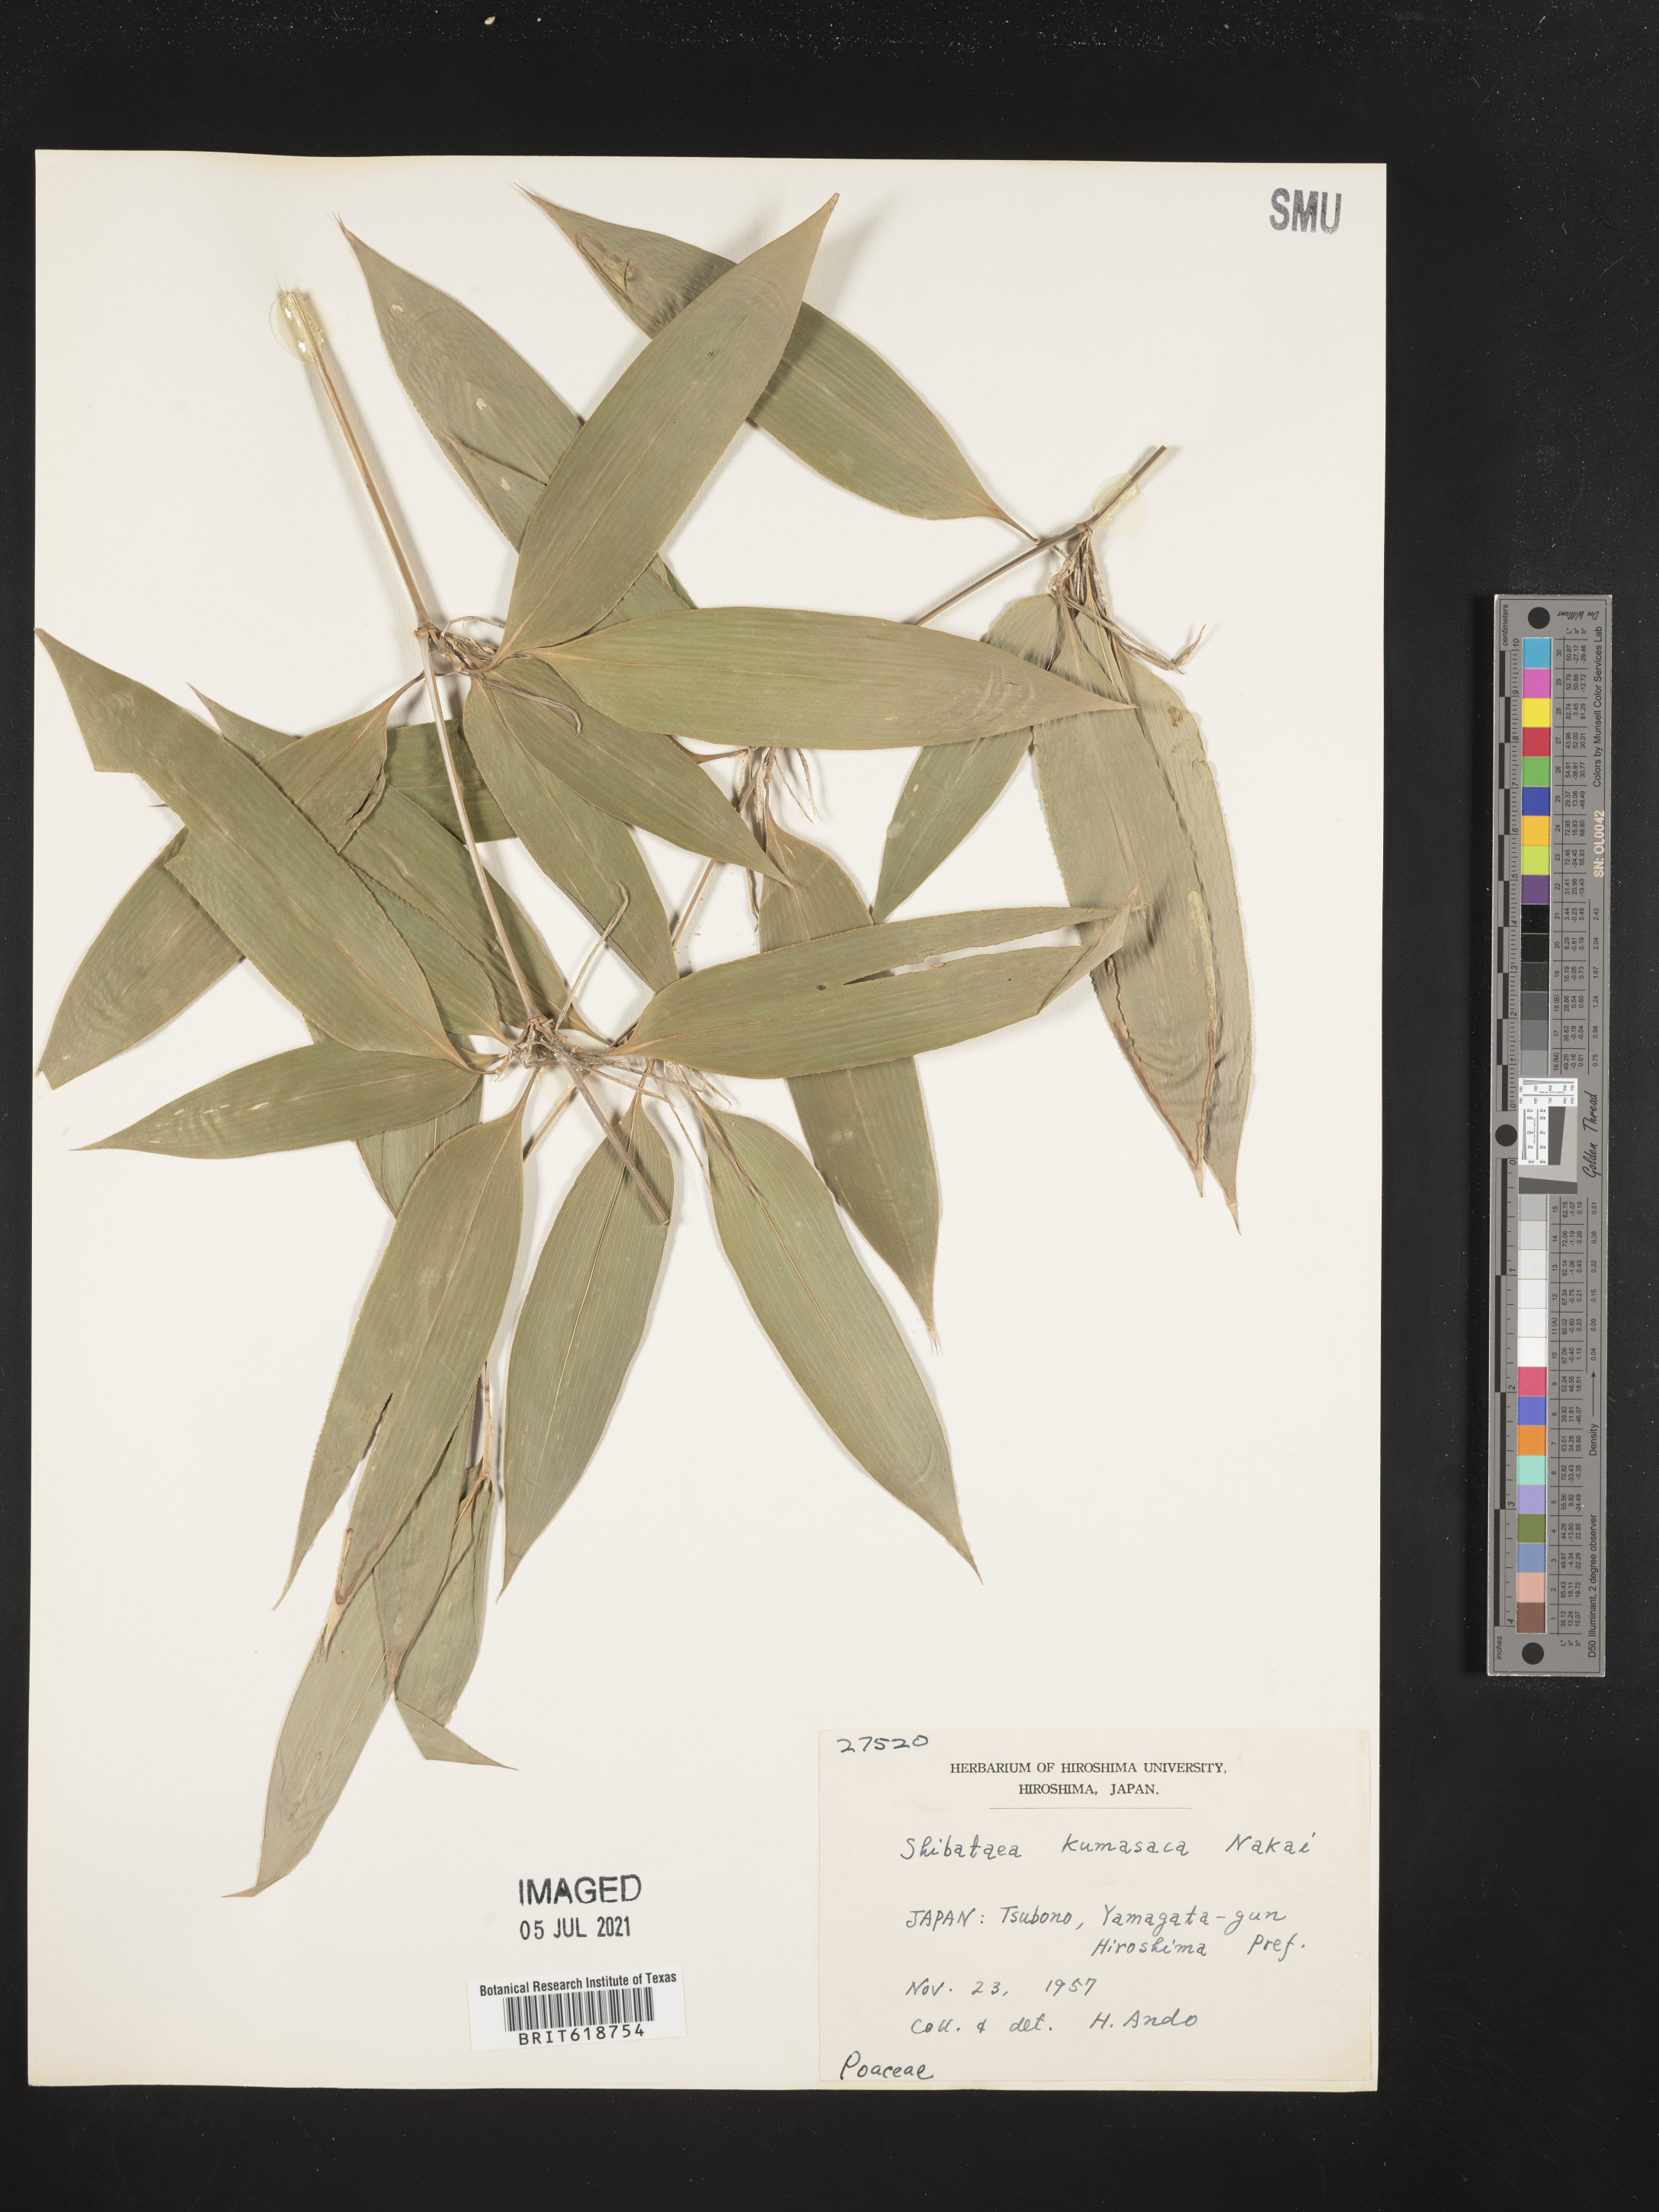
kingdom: Plantae
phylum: Tracheophyta
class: Liliopsida
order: Poales
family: Poaceae
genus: Shibataea
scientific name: Shibataea kumasasa
